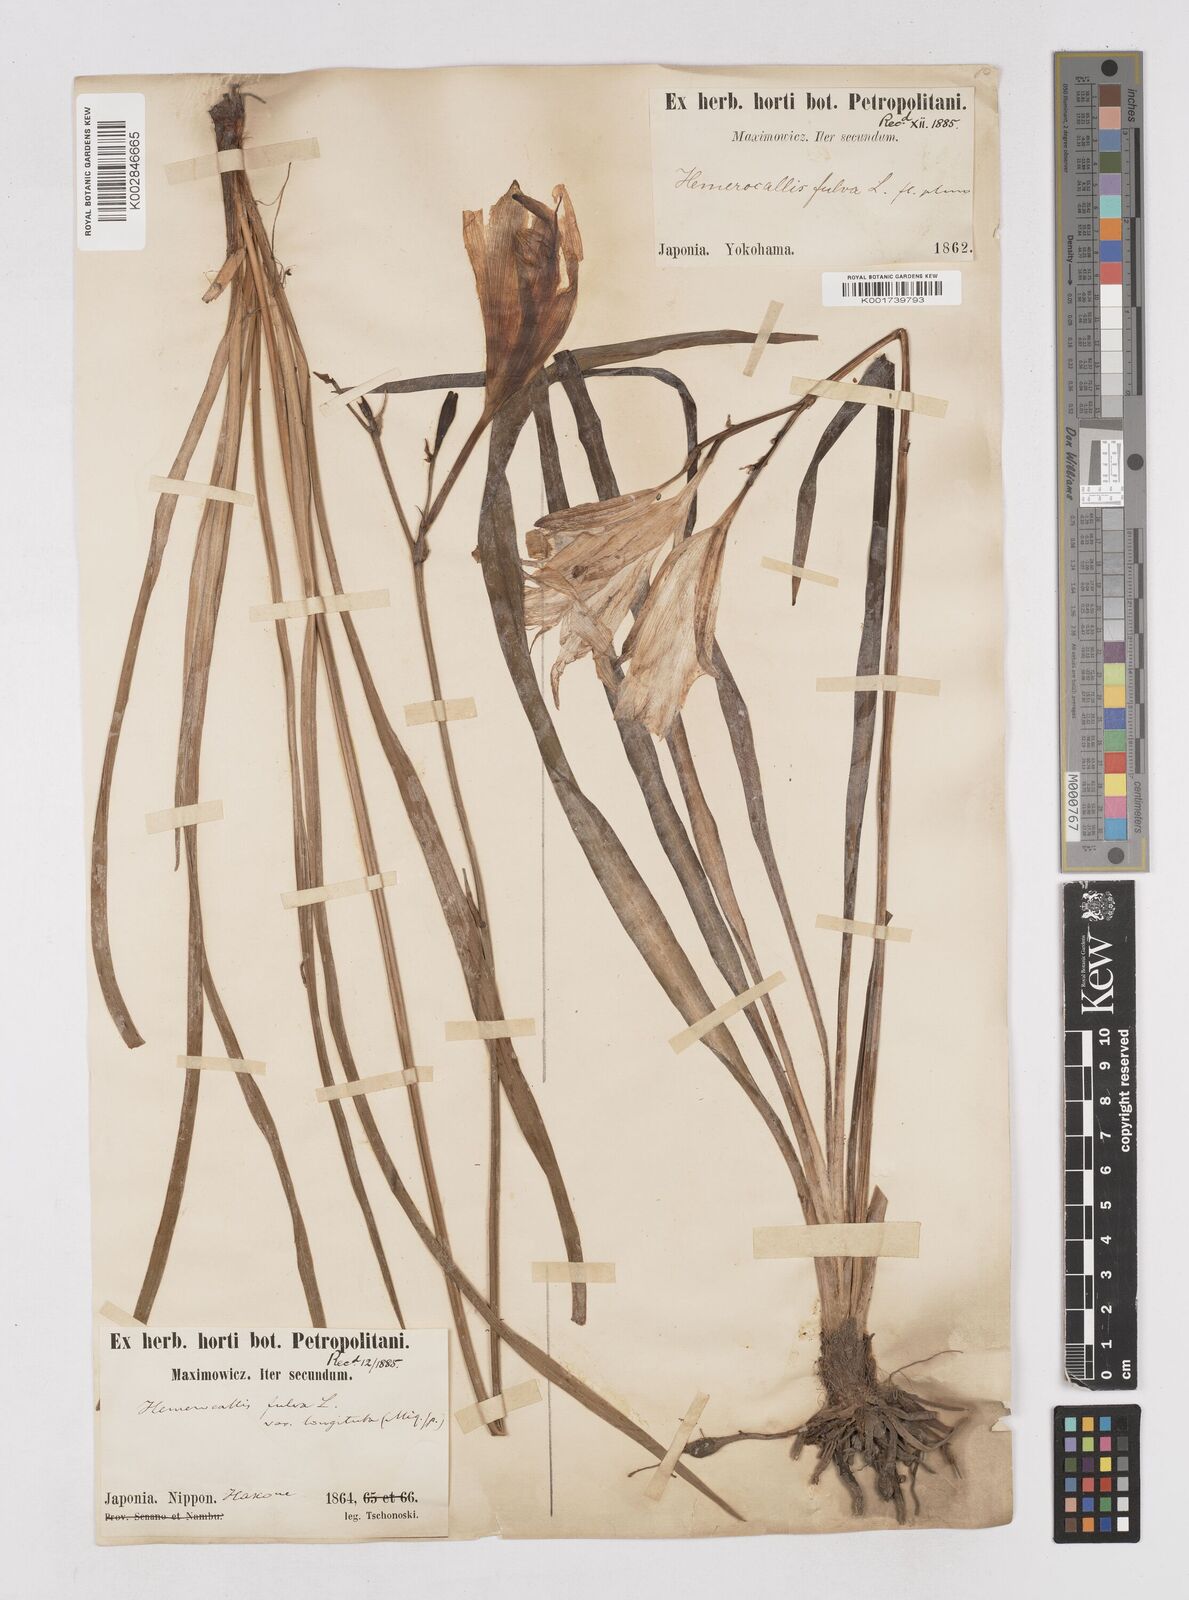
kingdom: Plantae
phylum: Tracheophyta
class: Liliopsida
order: Asparagales
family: Asphodelaceae
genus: Hemerocallis
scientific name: Hemerocallis fulva
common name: Orange day-lily
